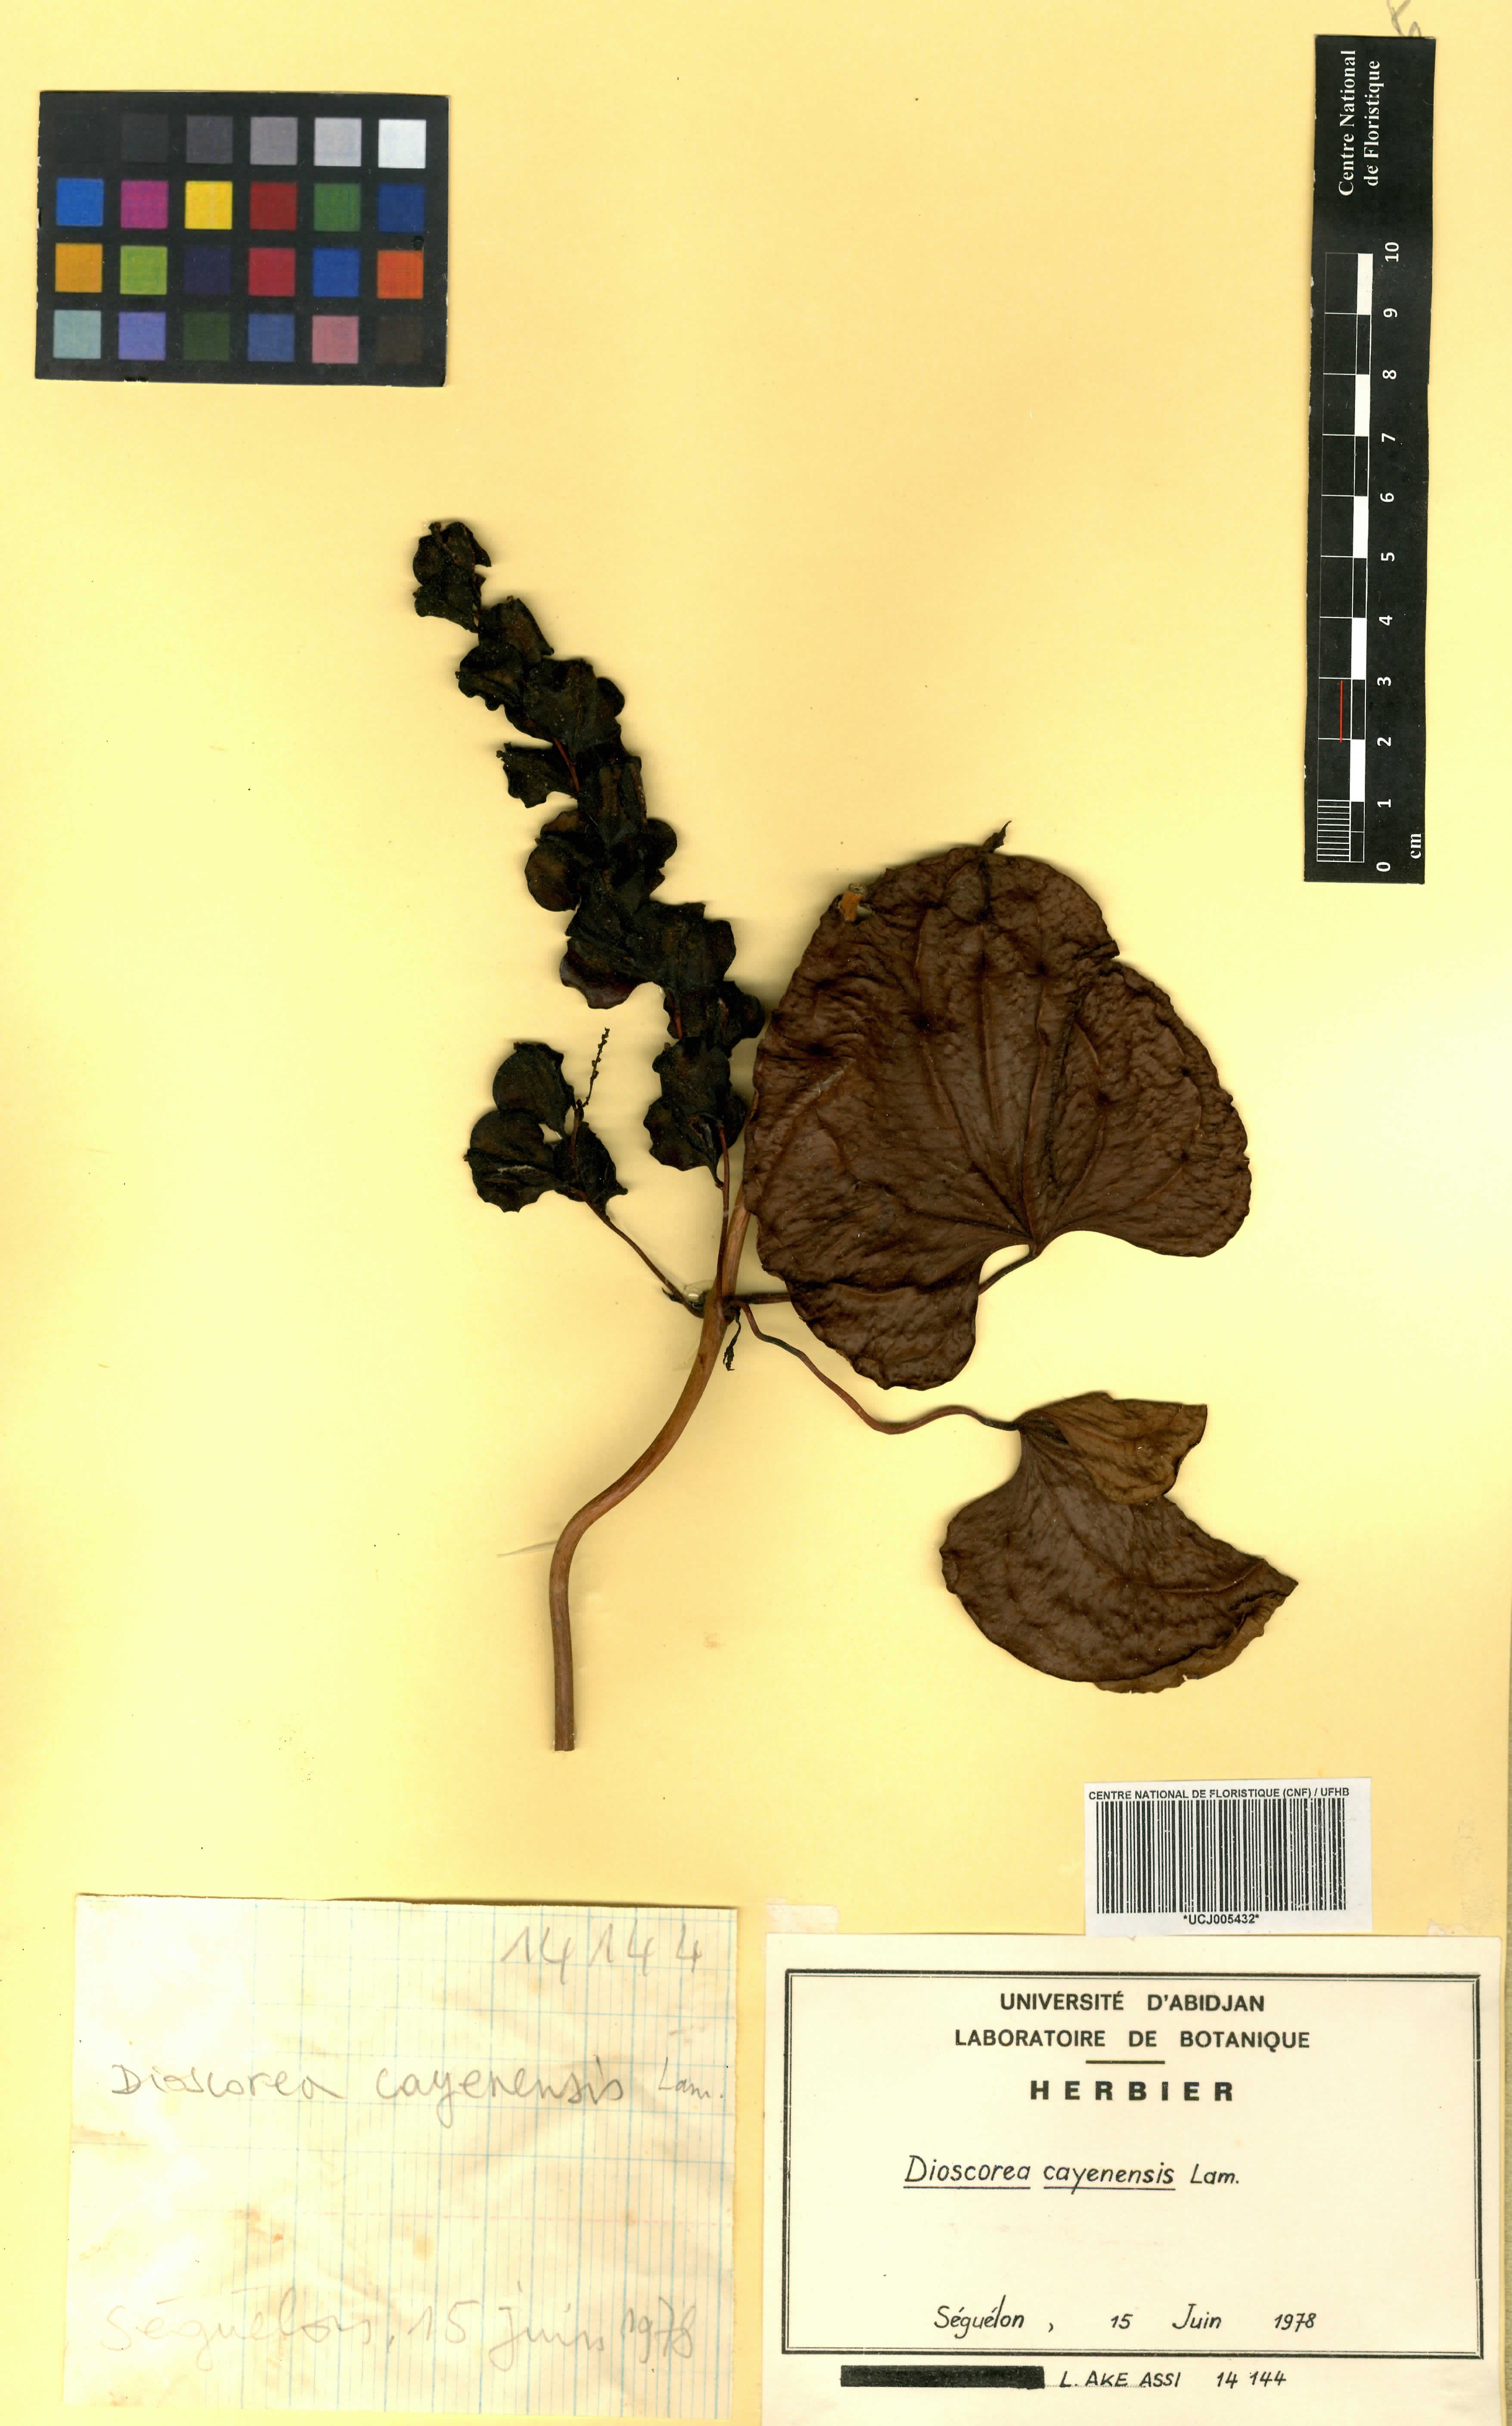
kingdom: Plantae
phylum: Tracheophyta
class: Liliopsida
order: Dioscoreales
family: Dioscoreaceae
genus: Dioscorea
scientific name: Dioscorea cayenensis
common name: Attoto yam
